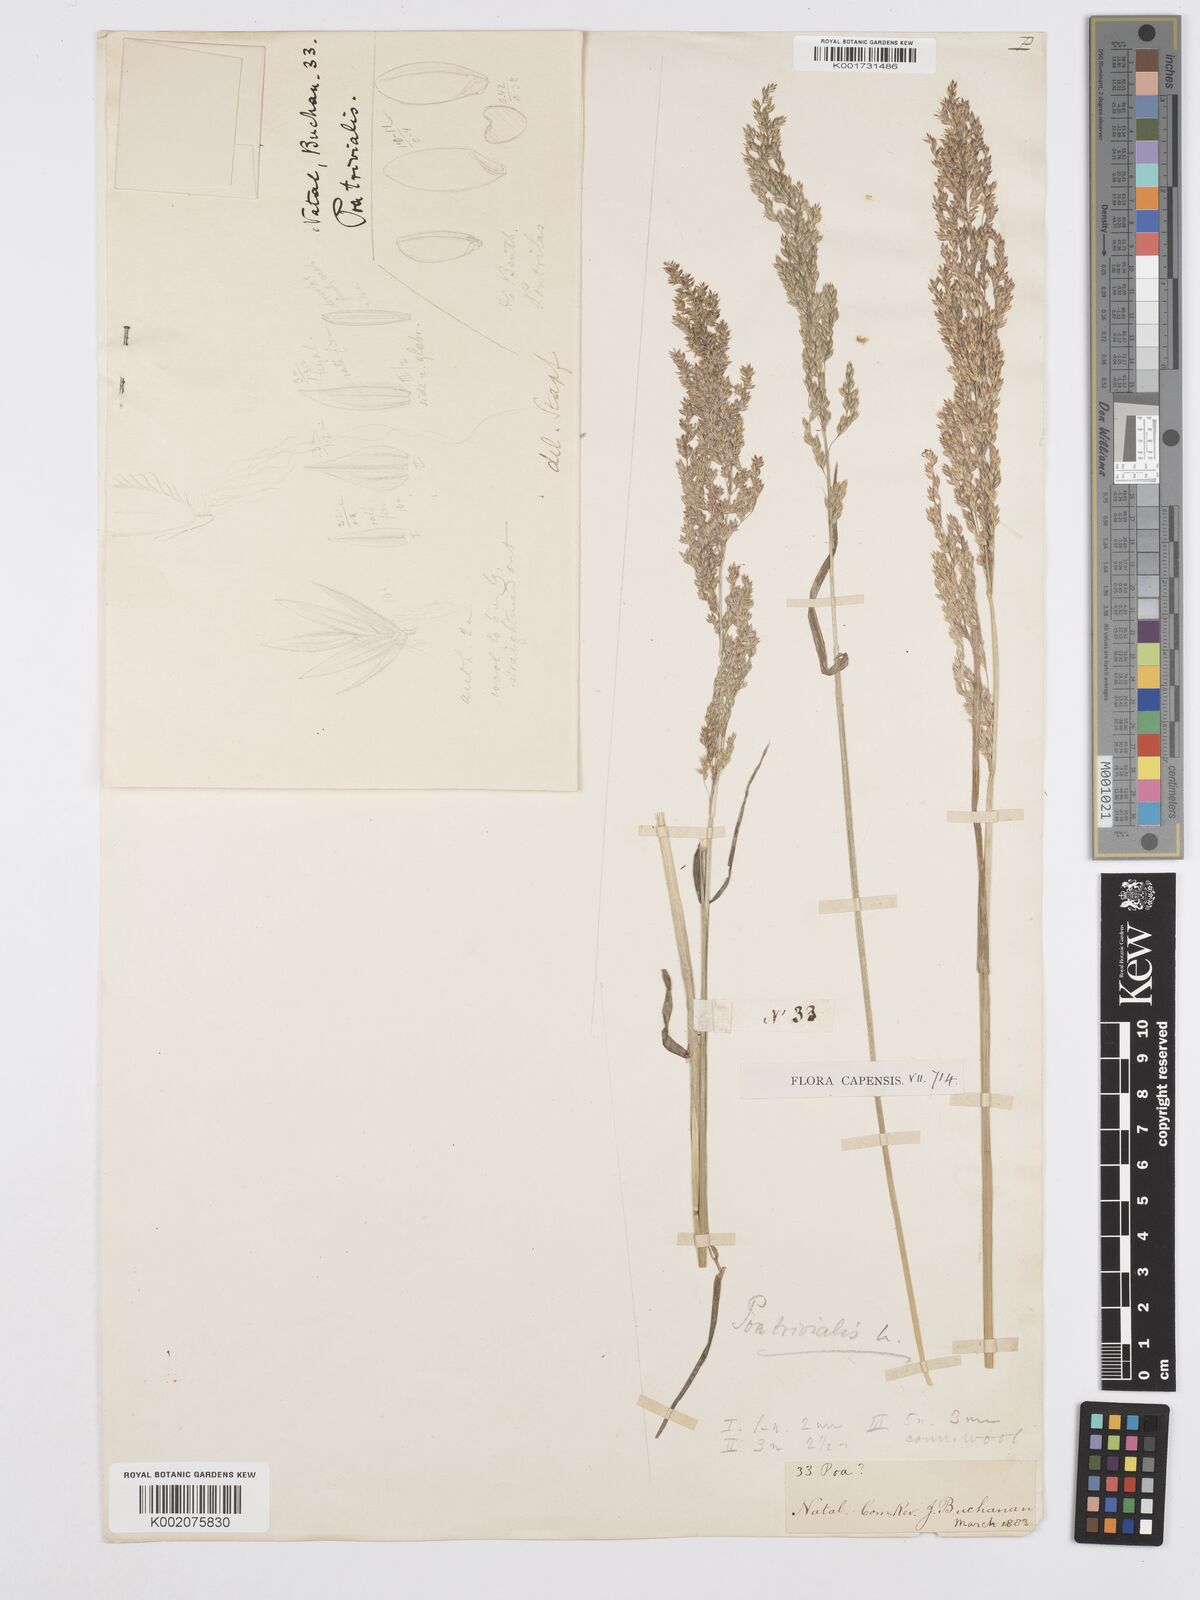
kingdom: Plantae
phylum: Tracheophyta
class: Liliopsida
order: Poales
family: Poaceae
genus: Poa
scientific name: Poa trivialis
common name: Rough bluegrass
